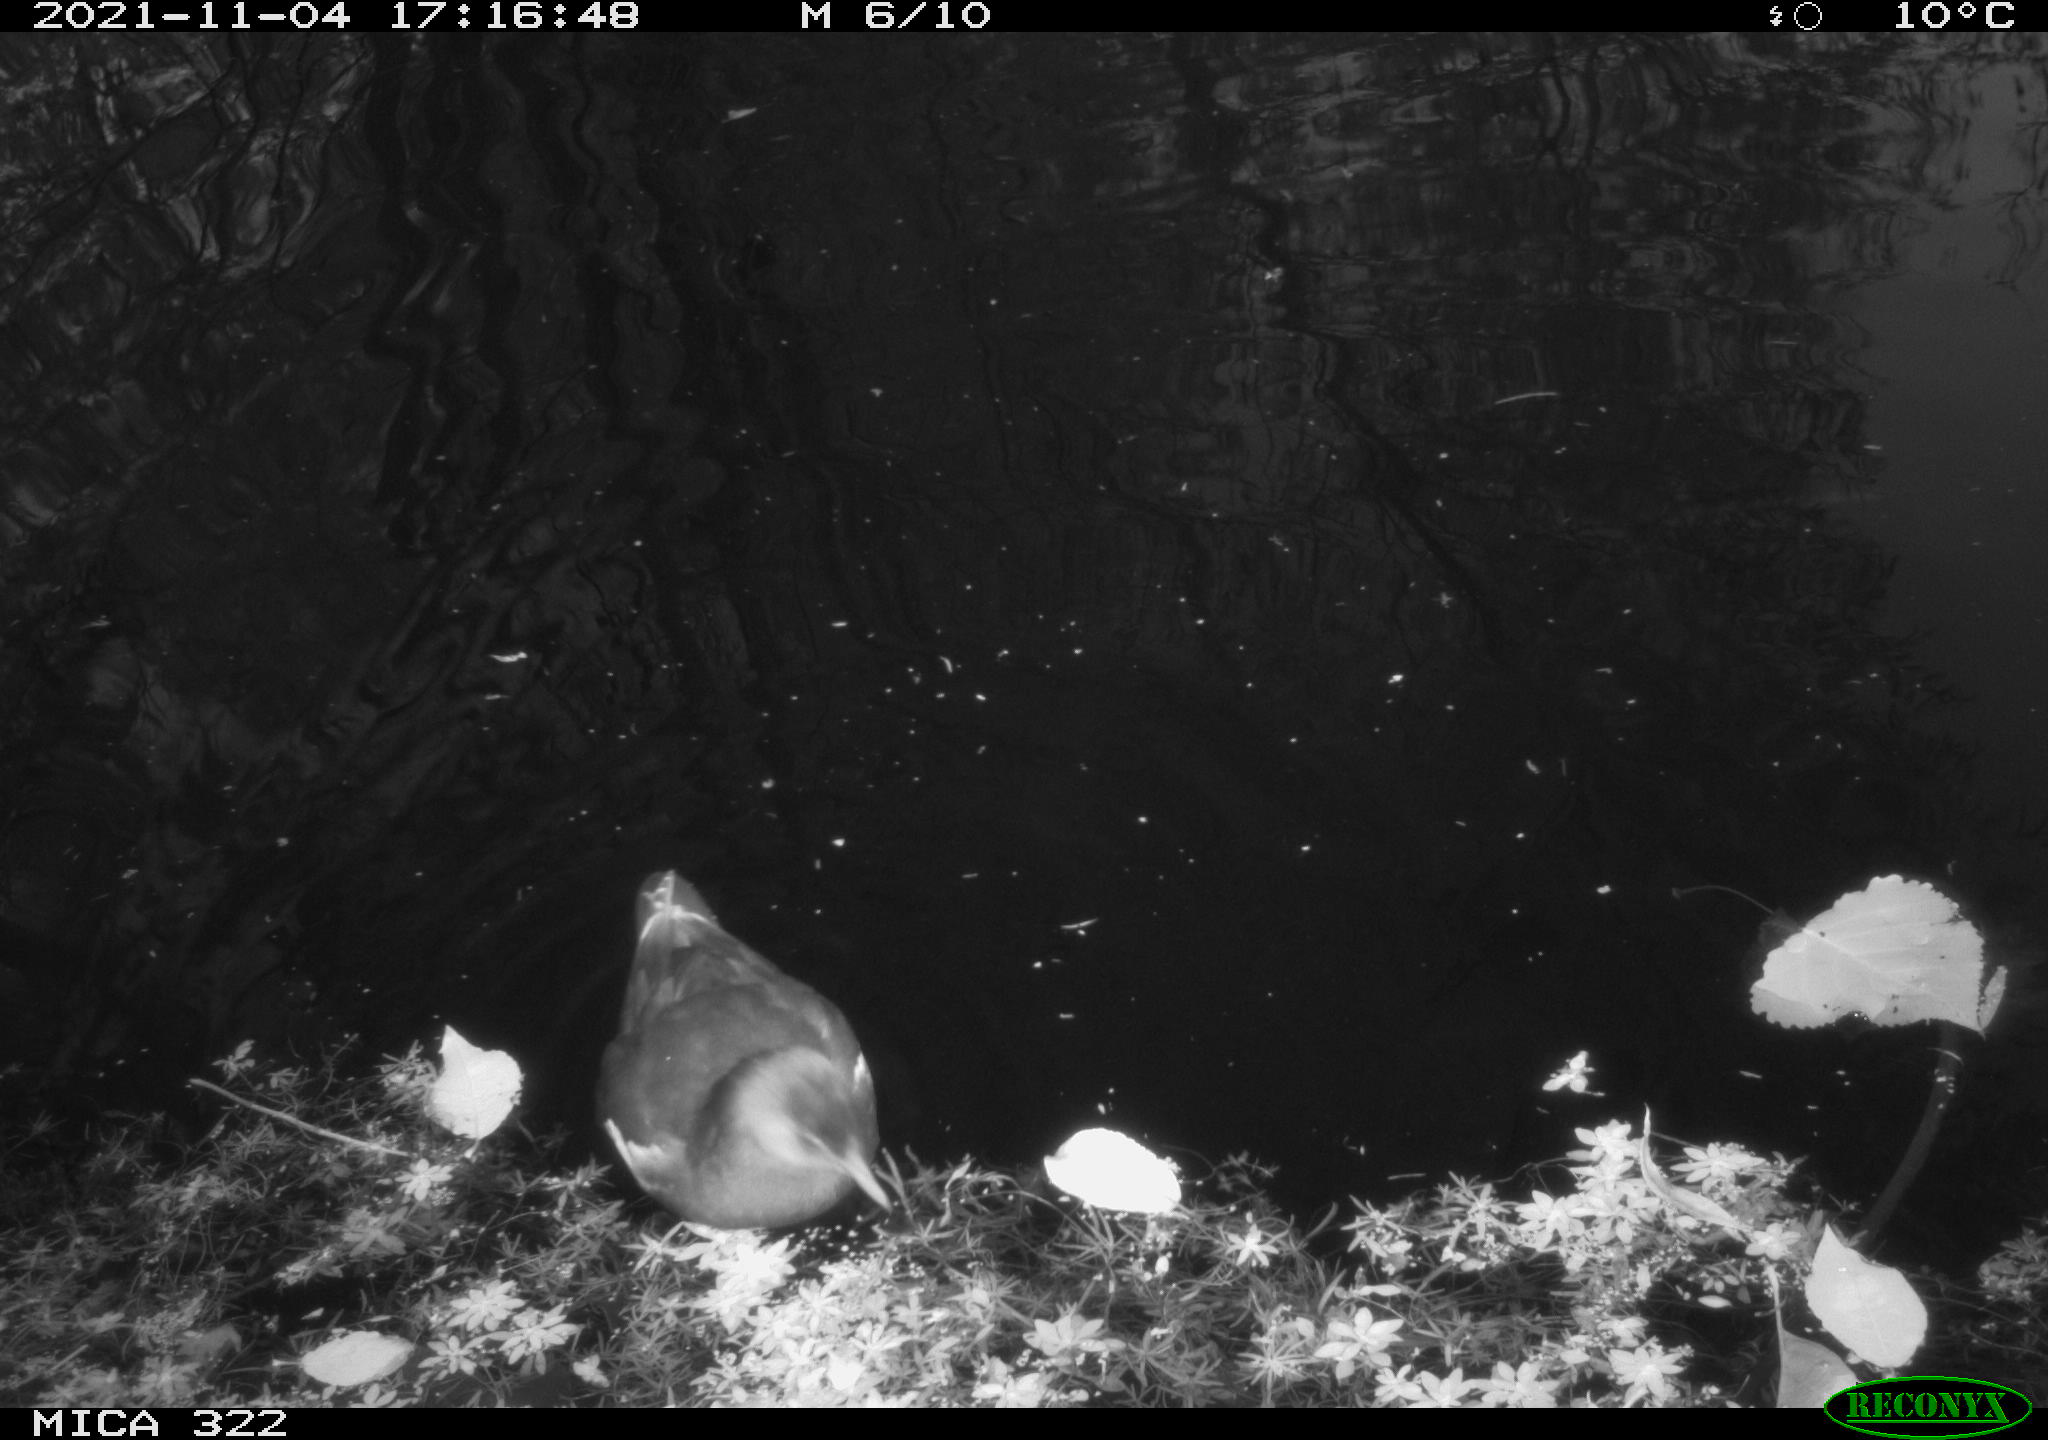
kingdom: Animalia
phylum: Chordata
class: Aves
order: Gruiformes
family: Rallidae
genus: Gallinula
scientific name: Gallinula chloropus
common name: Common moorhen
